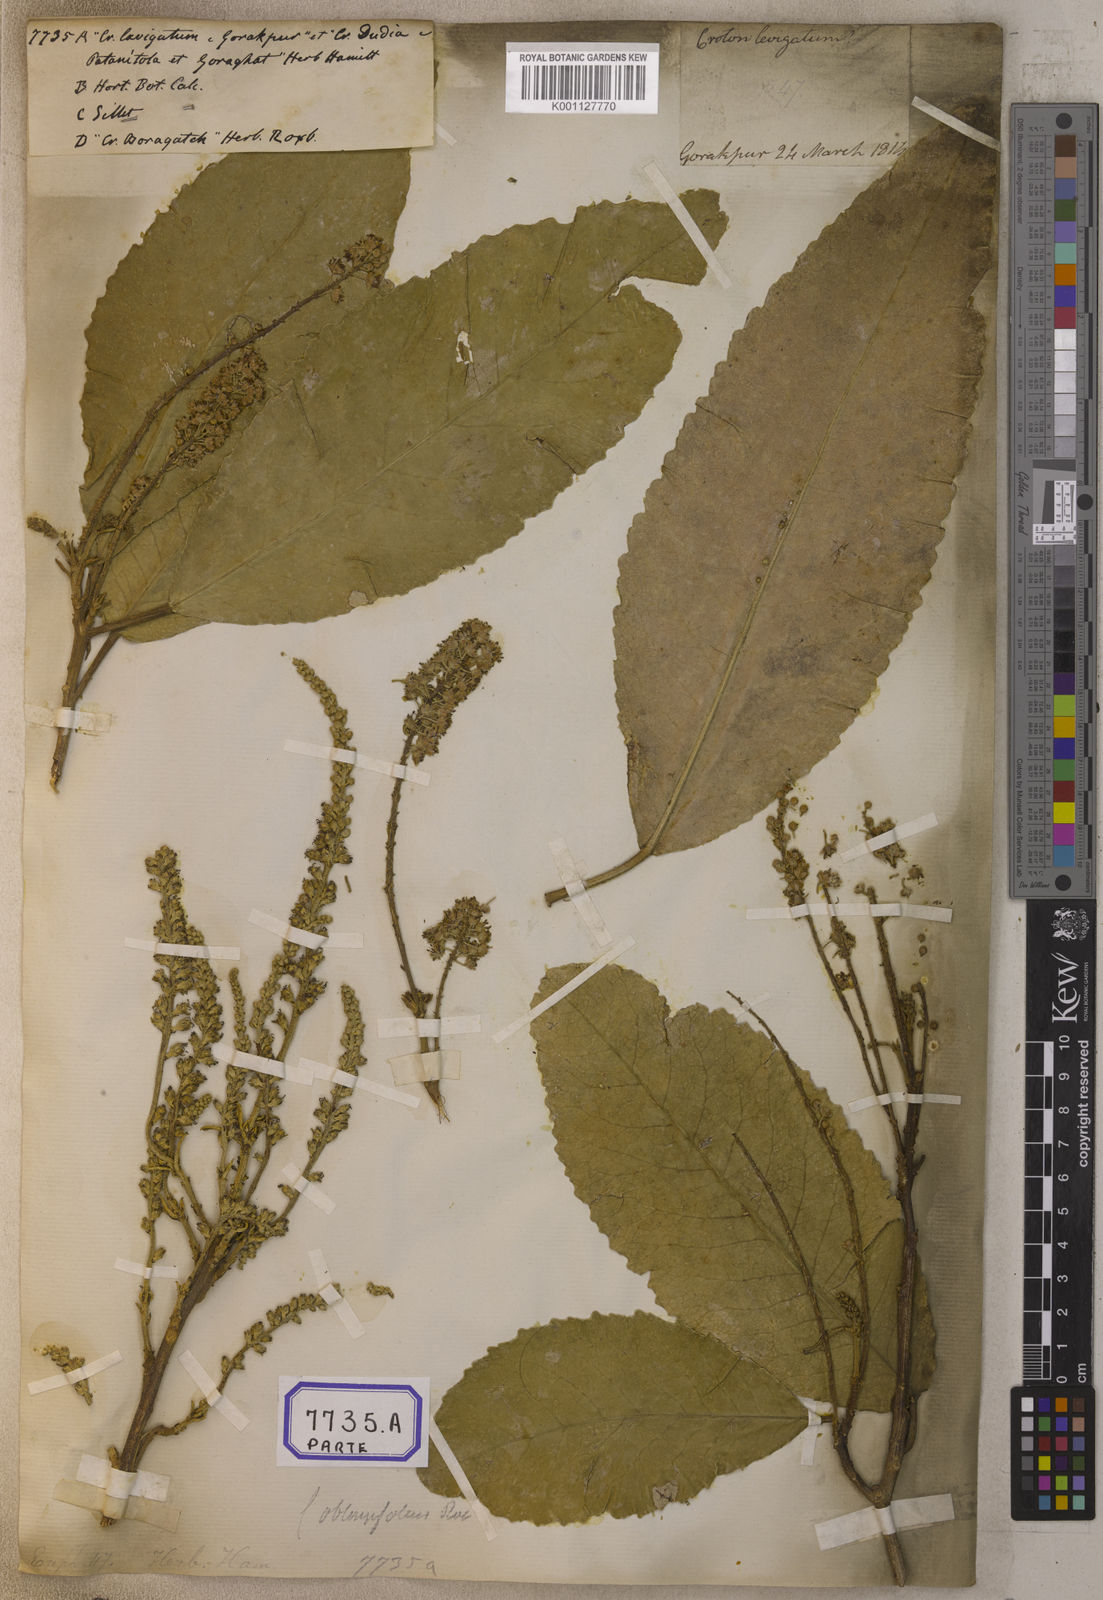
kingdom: Plantae
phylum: Tracheophyta
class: Magnoliopsida
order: Malpighiales
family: Euphorbiaceae
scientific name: Euphorbiaceae
